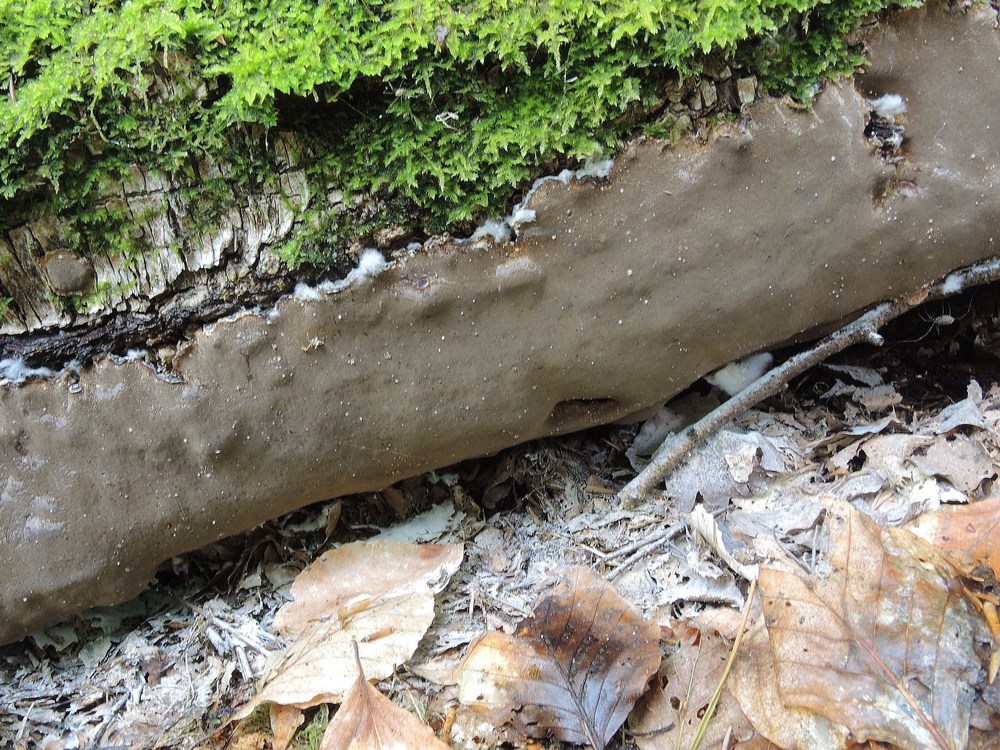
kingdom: Fungi
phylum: Basidiomycota
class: Agaricomycetes
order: Hymenochaetales
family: Hymenochaetaceae
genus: Phellinus
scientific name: Phellinus laevigatus
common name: glat ildporesvamp
